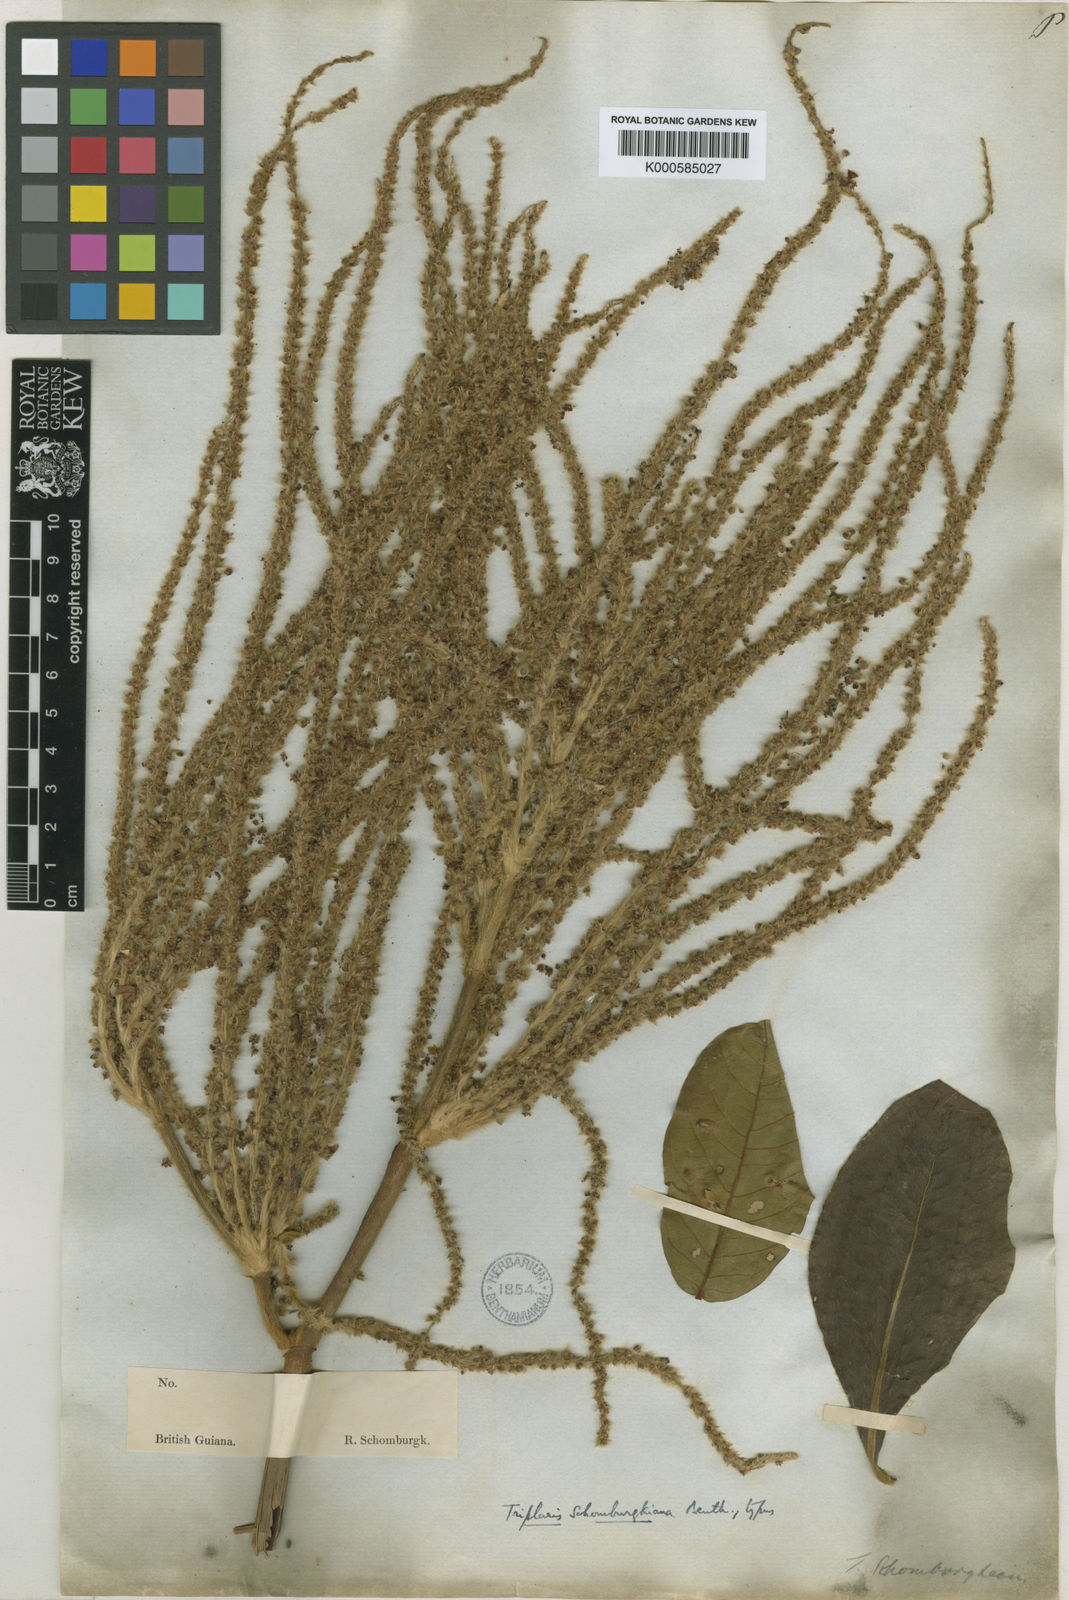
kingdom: Plantae
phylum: Tracheophyta
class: Magnoliopsida
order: Caryophyllales
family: Polygonaceae
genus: Triplaris
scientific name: Triplaris americana
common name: Ant-tree
